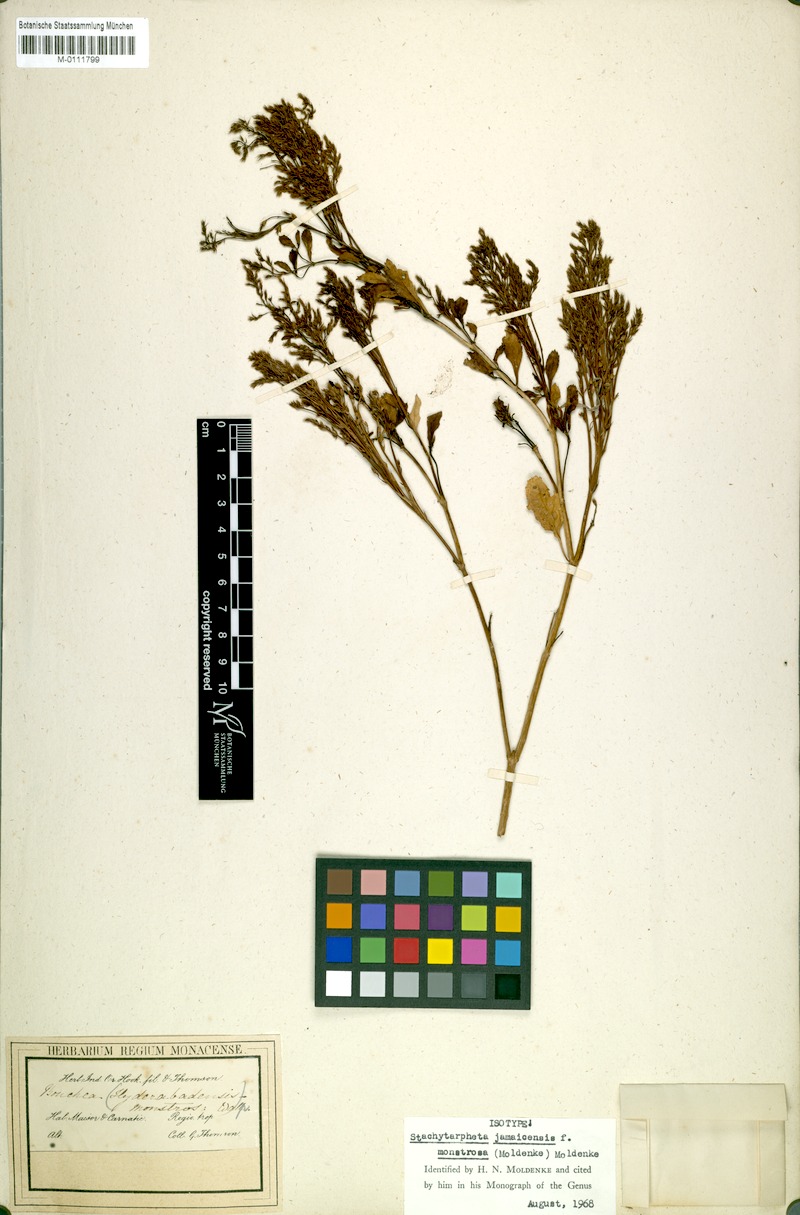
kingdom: Plantae
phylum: Tracheophyta
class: Magnoliopsida
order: Lamiales
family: Verbenaceae
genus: Stachytarpheta
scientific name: Stachytarpheta indica
